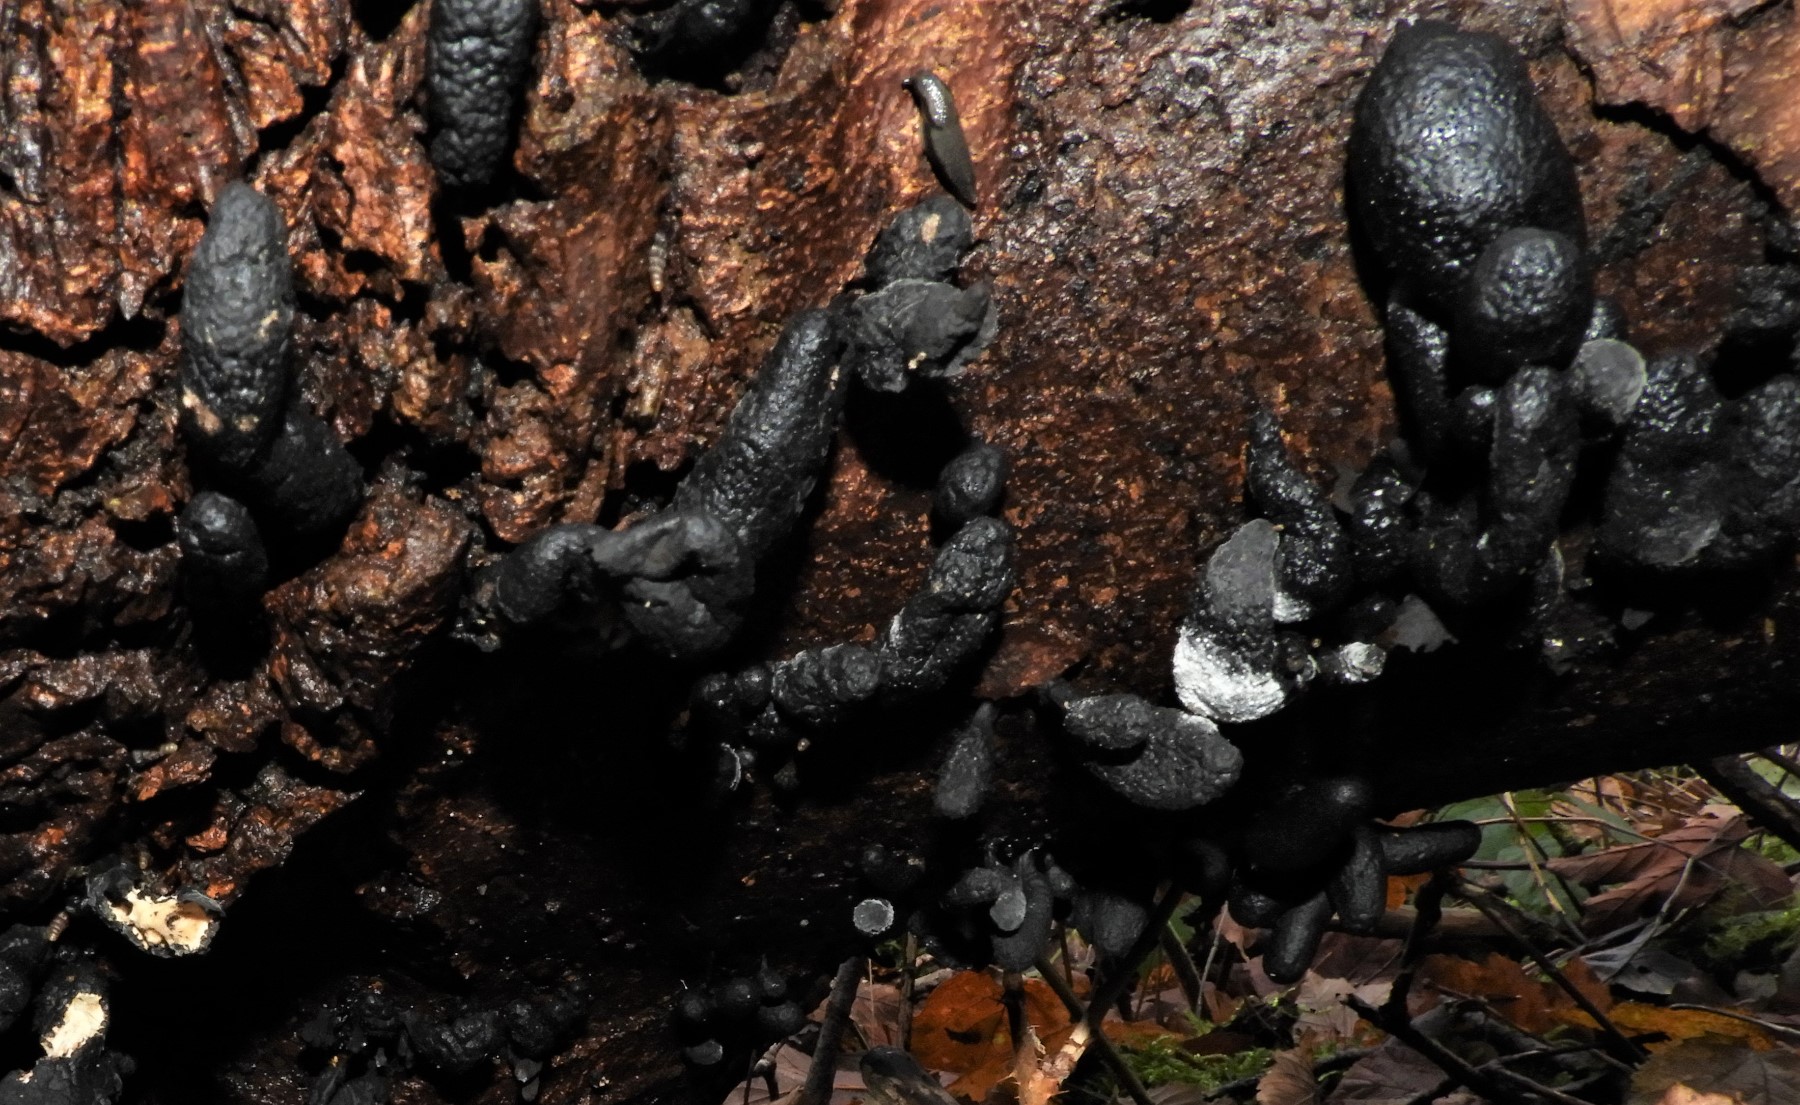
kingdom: Fungi
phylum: Ascomycota
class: Sordariomycetes
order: Xylariales
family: Xylariaceae
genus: Xylaria
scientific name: Xylaria polymorpha
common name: kølle-stødsvamp
